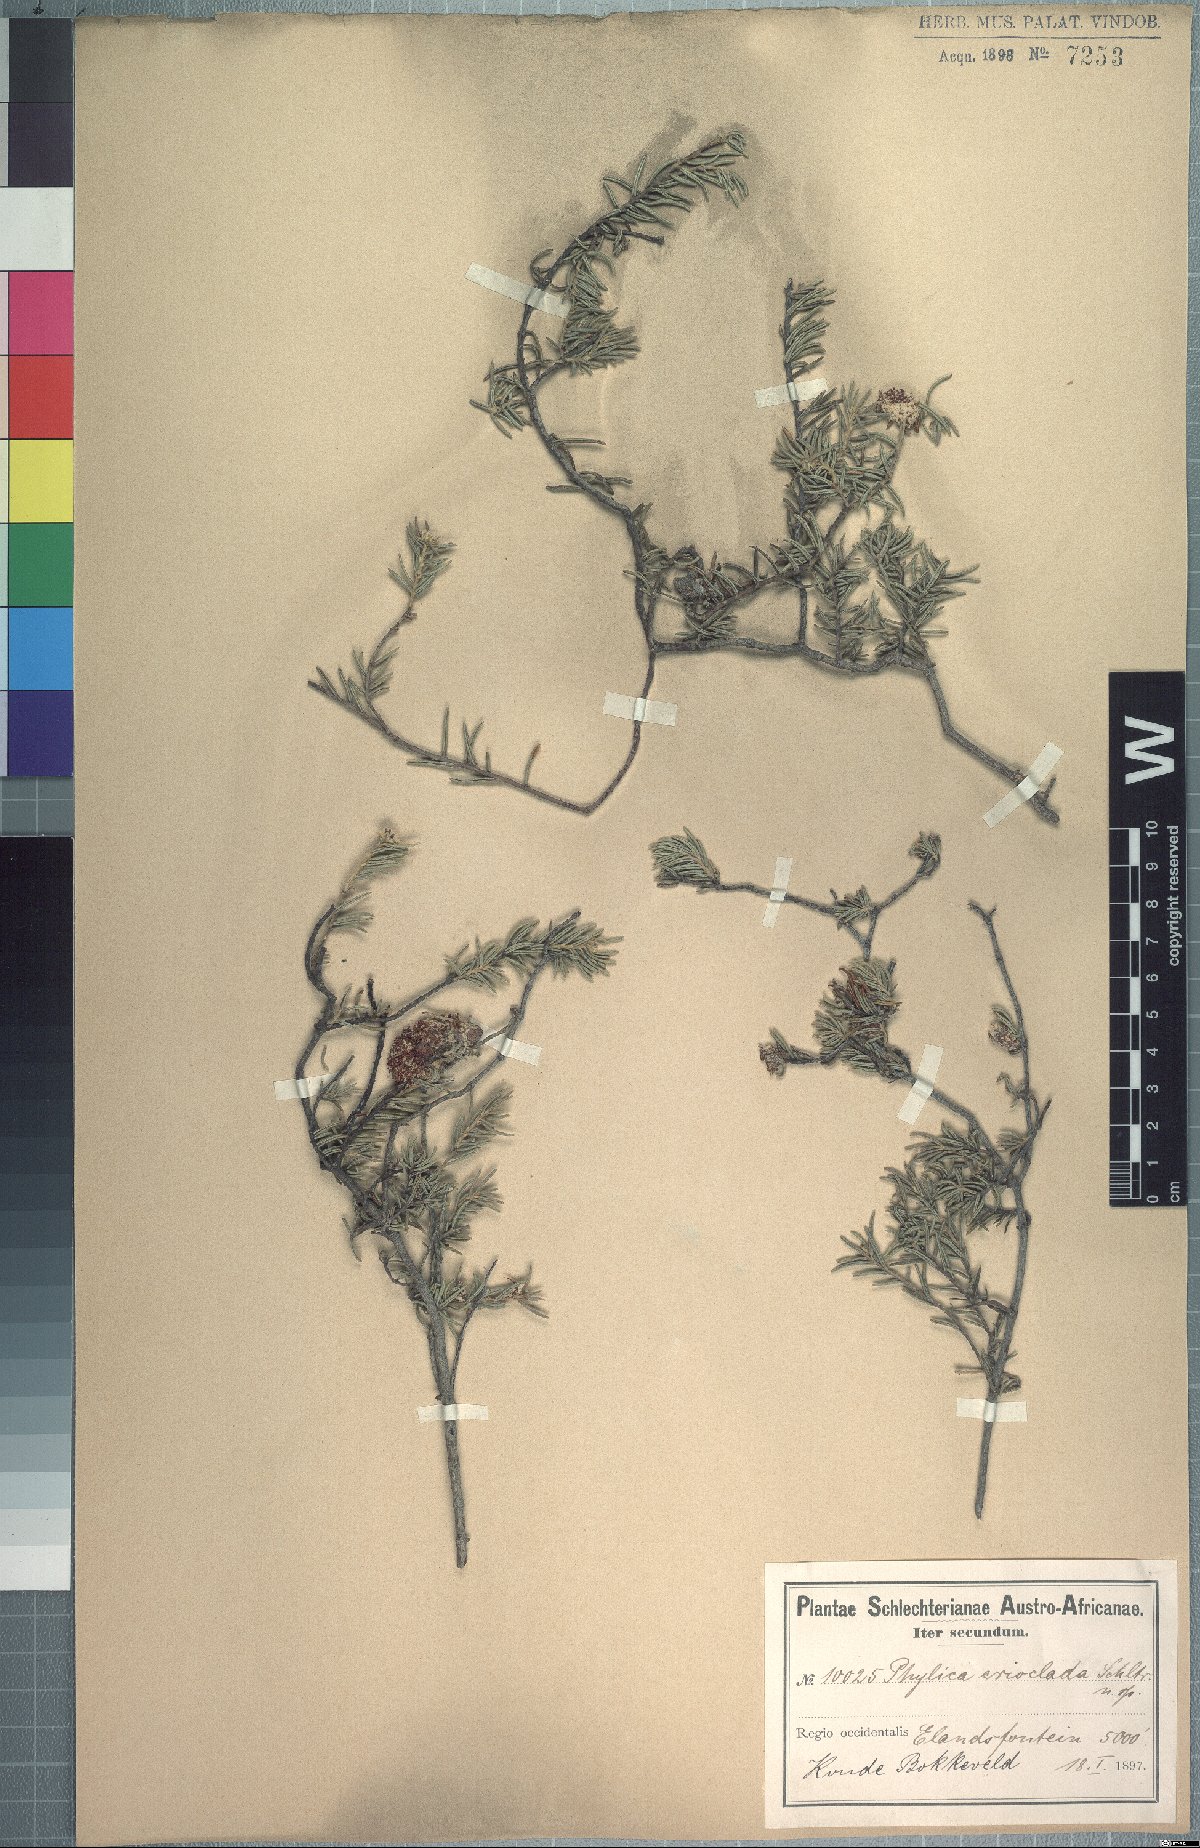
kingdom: Plantae
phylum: Tracheophyta
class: Magnoliopsida
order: Rosales
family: Rhamnaceae
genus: Phylica
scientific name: Phylica tuberculata
